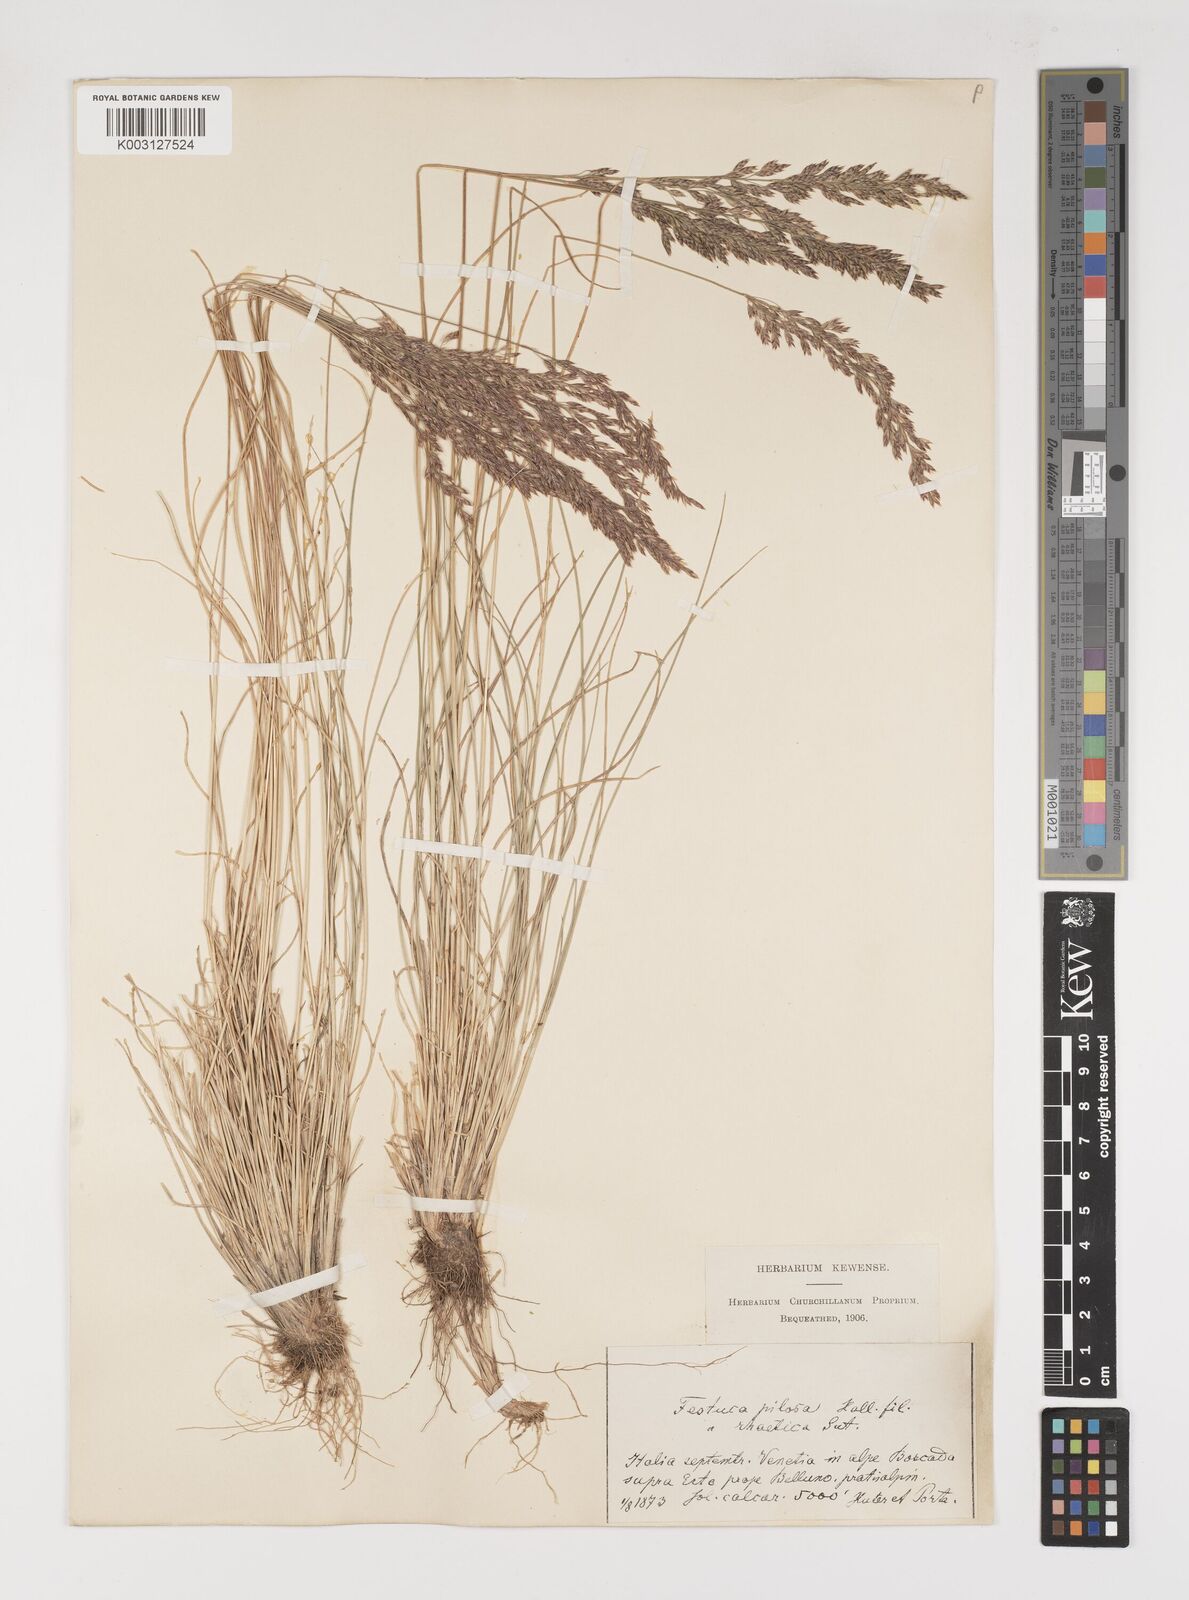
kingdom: Plantae
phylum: Tracheophyta
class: Liliopsida
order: Poales
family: Poaceae
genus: Bellardiochloa
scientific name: Bellardiochloa variegata
